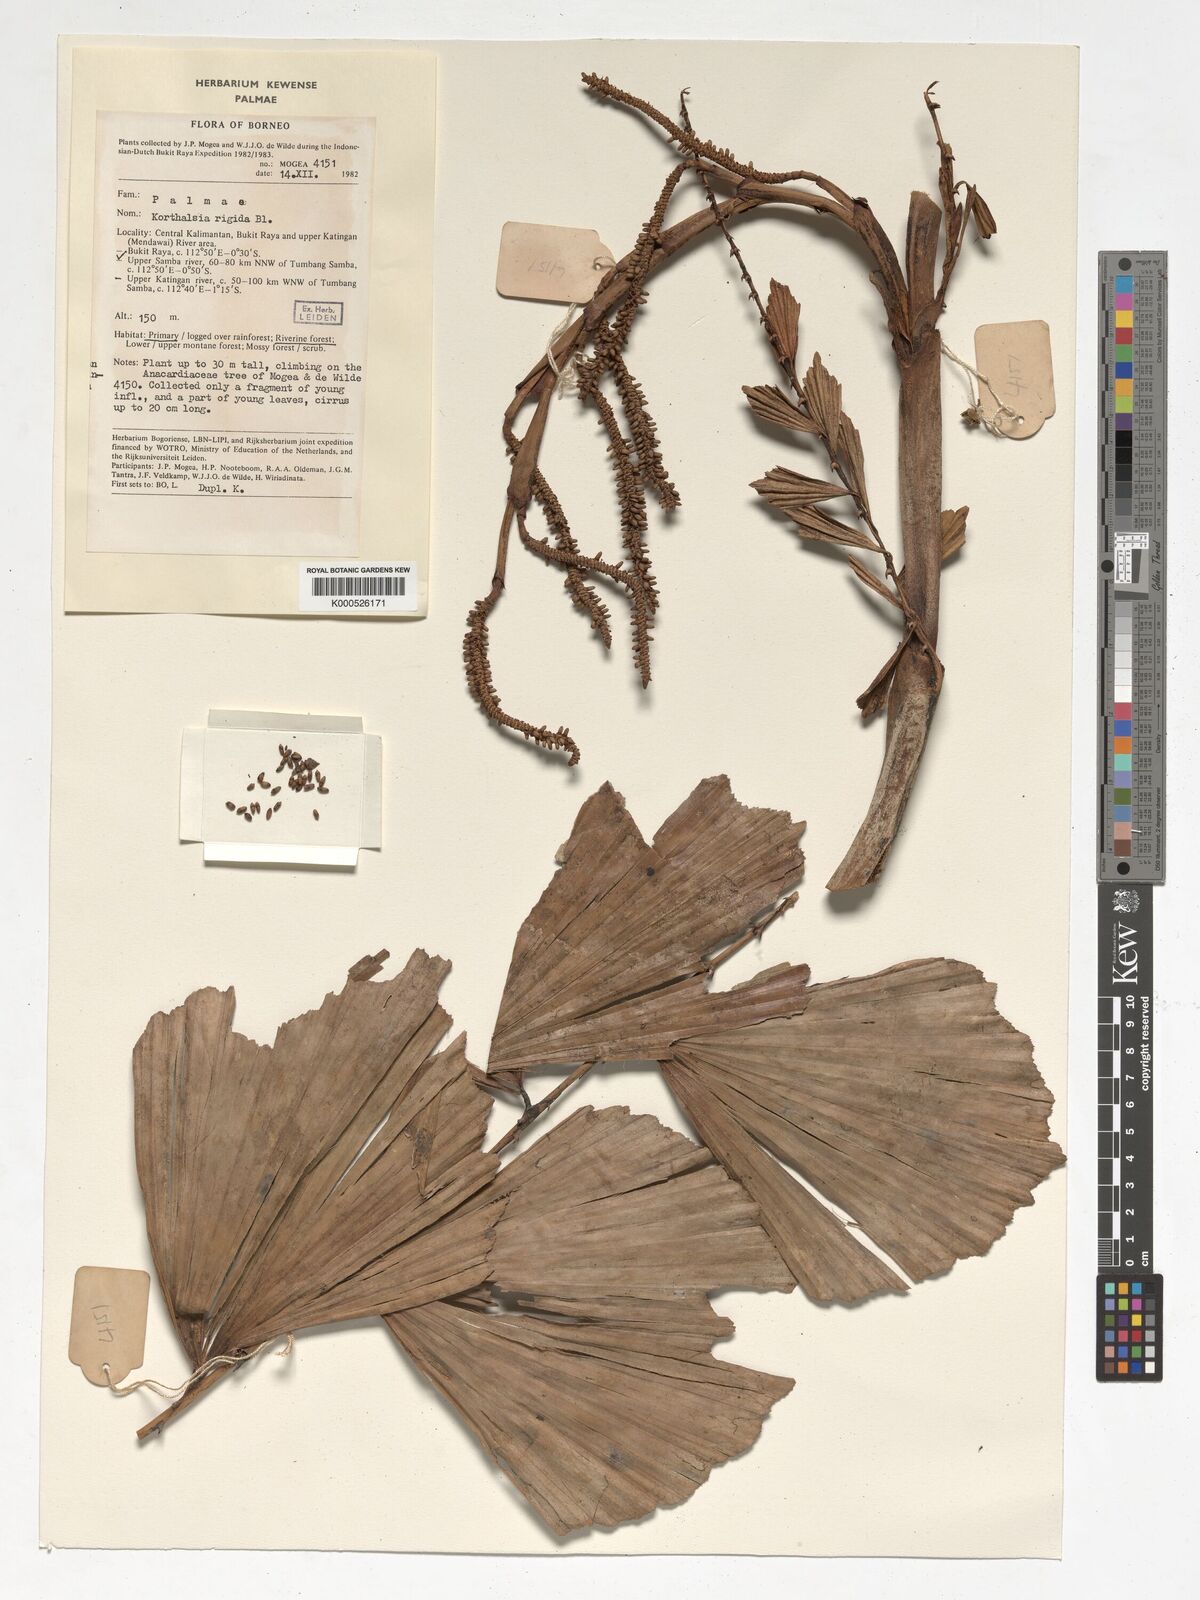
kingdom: Plantae
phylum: Tracheophyta
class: Liliopsida
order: Arecales
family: Arecaceae
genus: Korthalsia
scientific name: Korthalsia rigida
